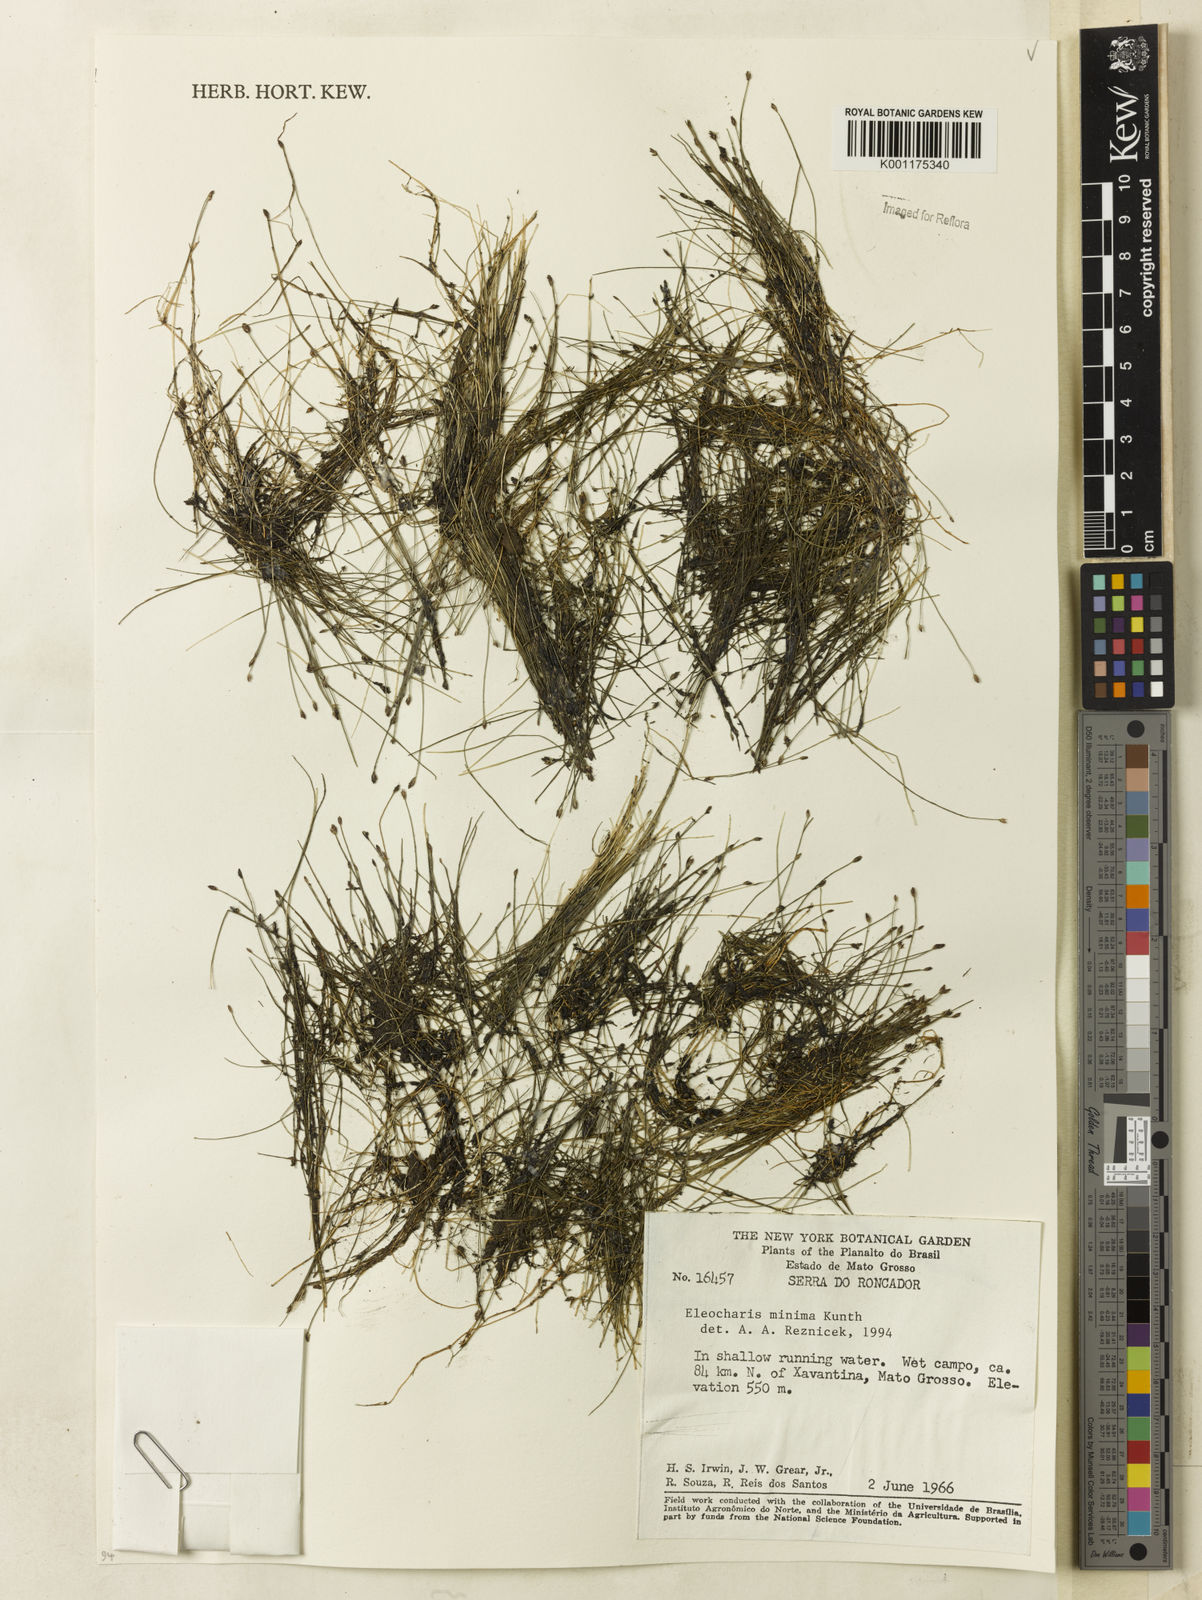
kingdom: Plantae
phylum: Tracheophyta
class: Liliopsida
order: Poales
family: Cyperaceae
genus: Eleocharis
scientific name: Eleocharis minima
